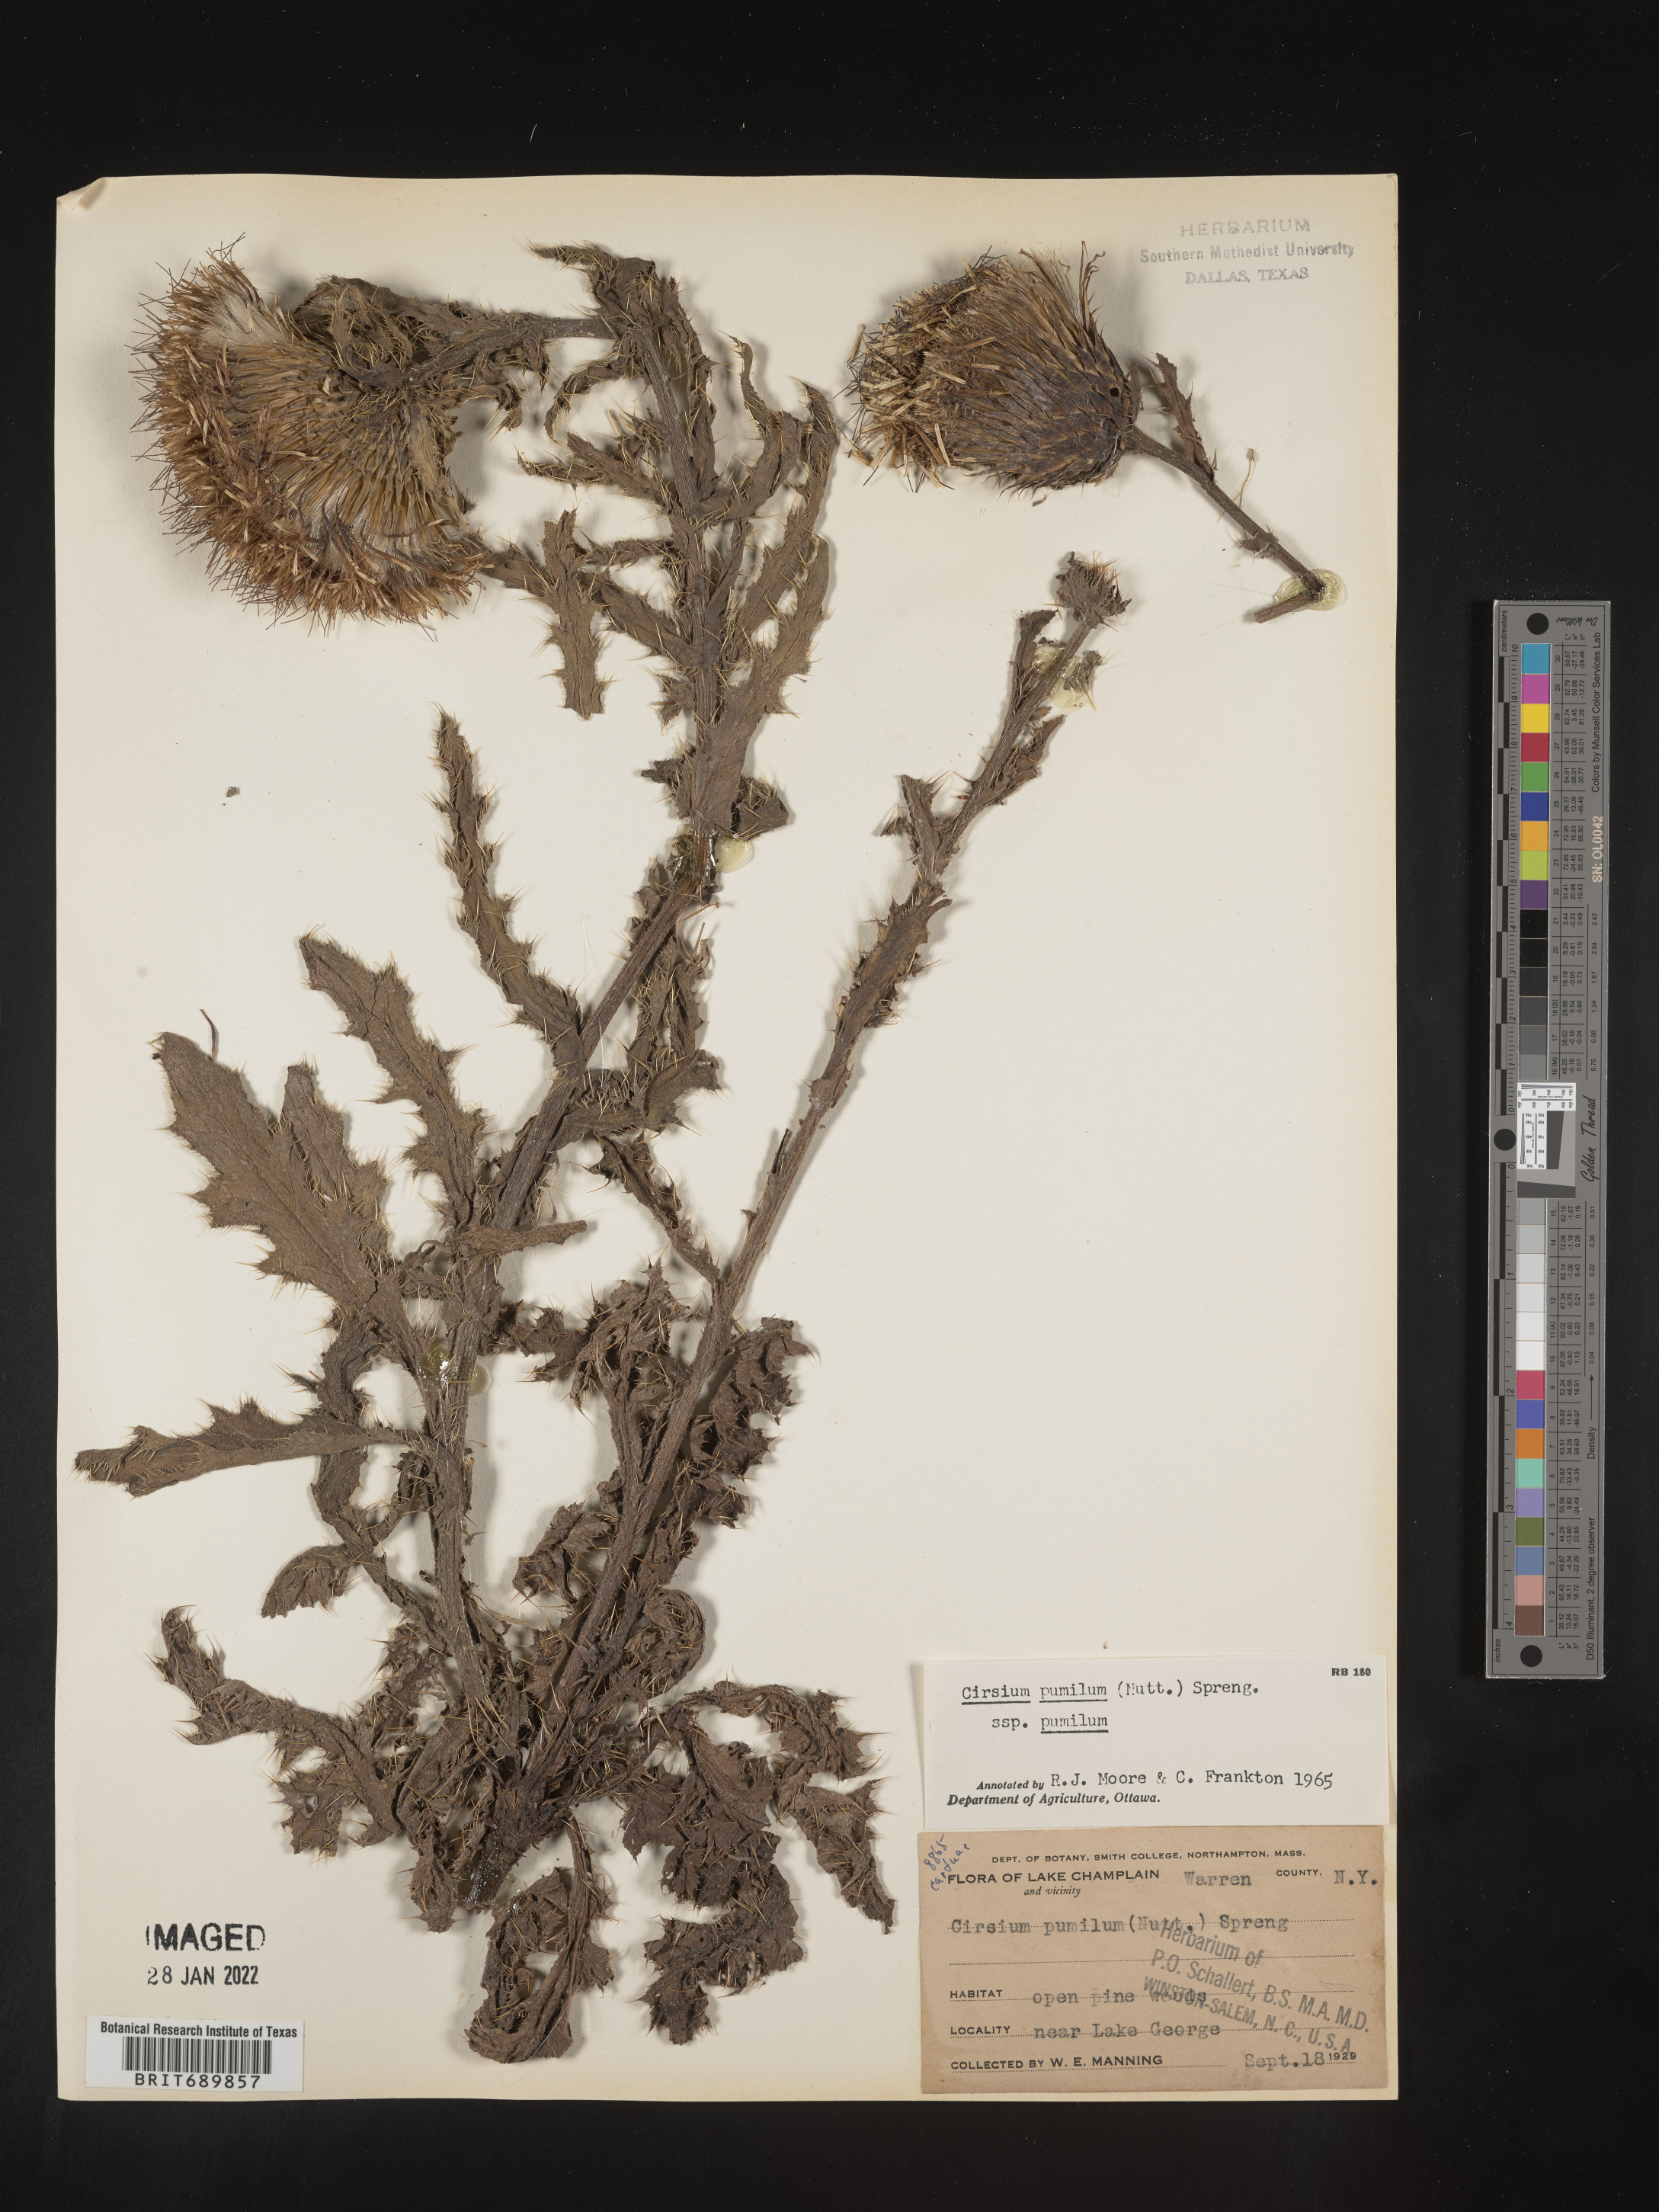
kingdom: Plantae
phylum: Tracheophyta
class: Magnoliopsida
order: Asterales
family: Asteraceae
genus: Cirsium
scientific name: Cirsium pumilum
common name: Pasture thistle
